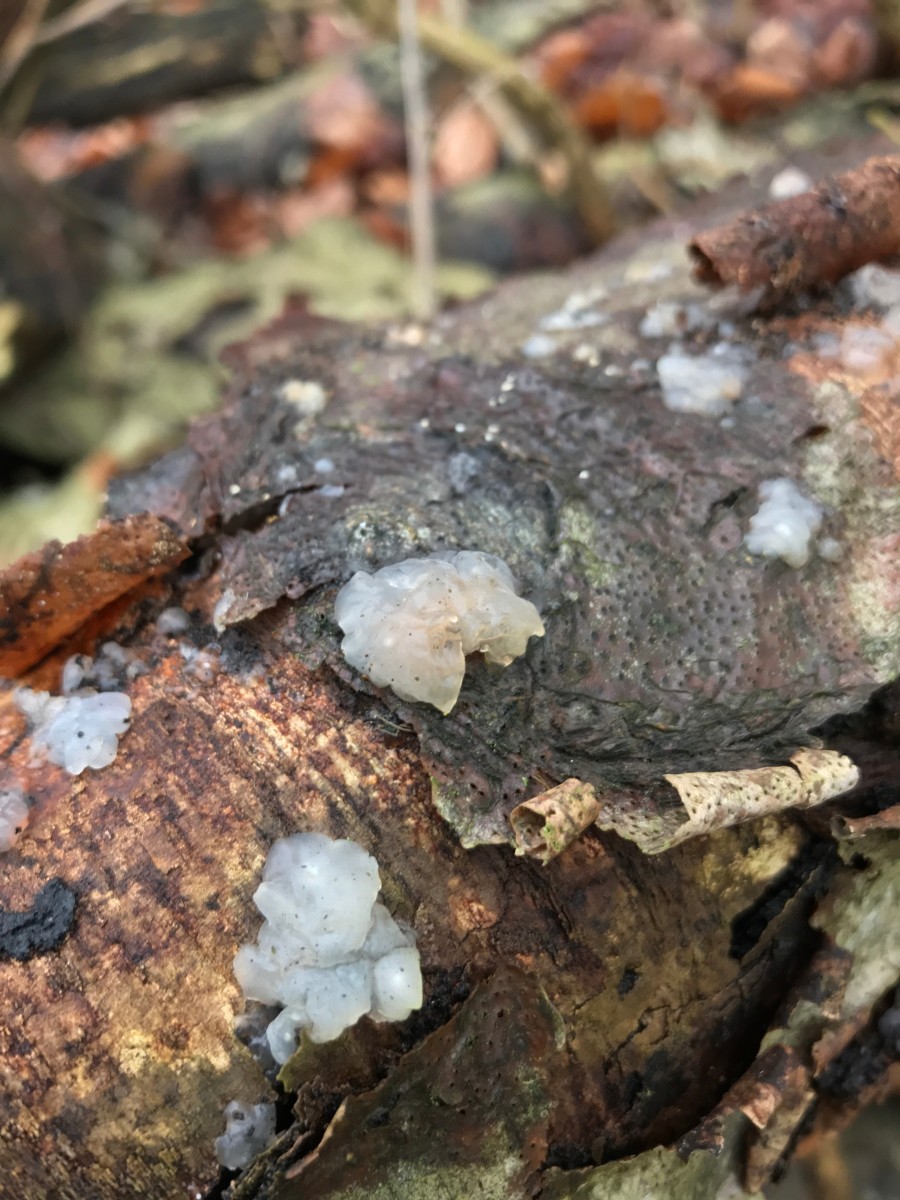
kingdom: Fungi
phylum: Basidiomycota
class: Agaricomycetes
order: Auriculariales
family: Hyaloriaceae
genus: Myxarium
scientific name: Myxarium nucleatum
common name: klar bævretop
